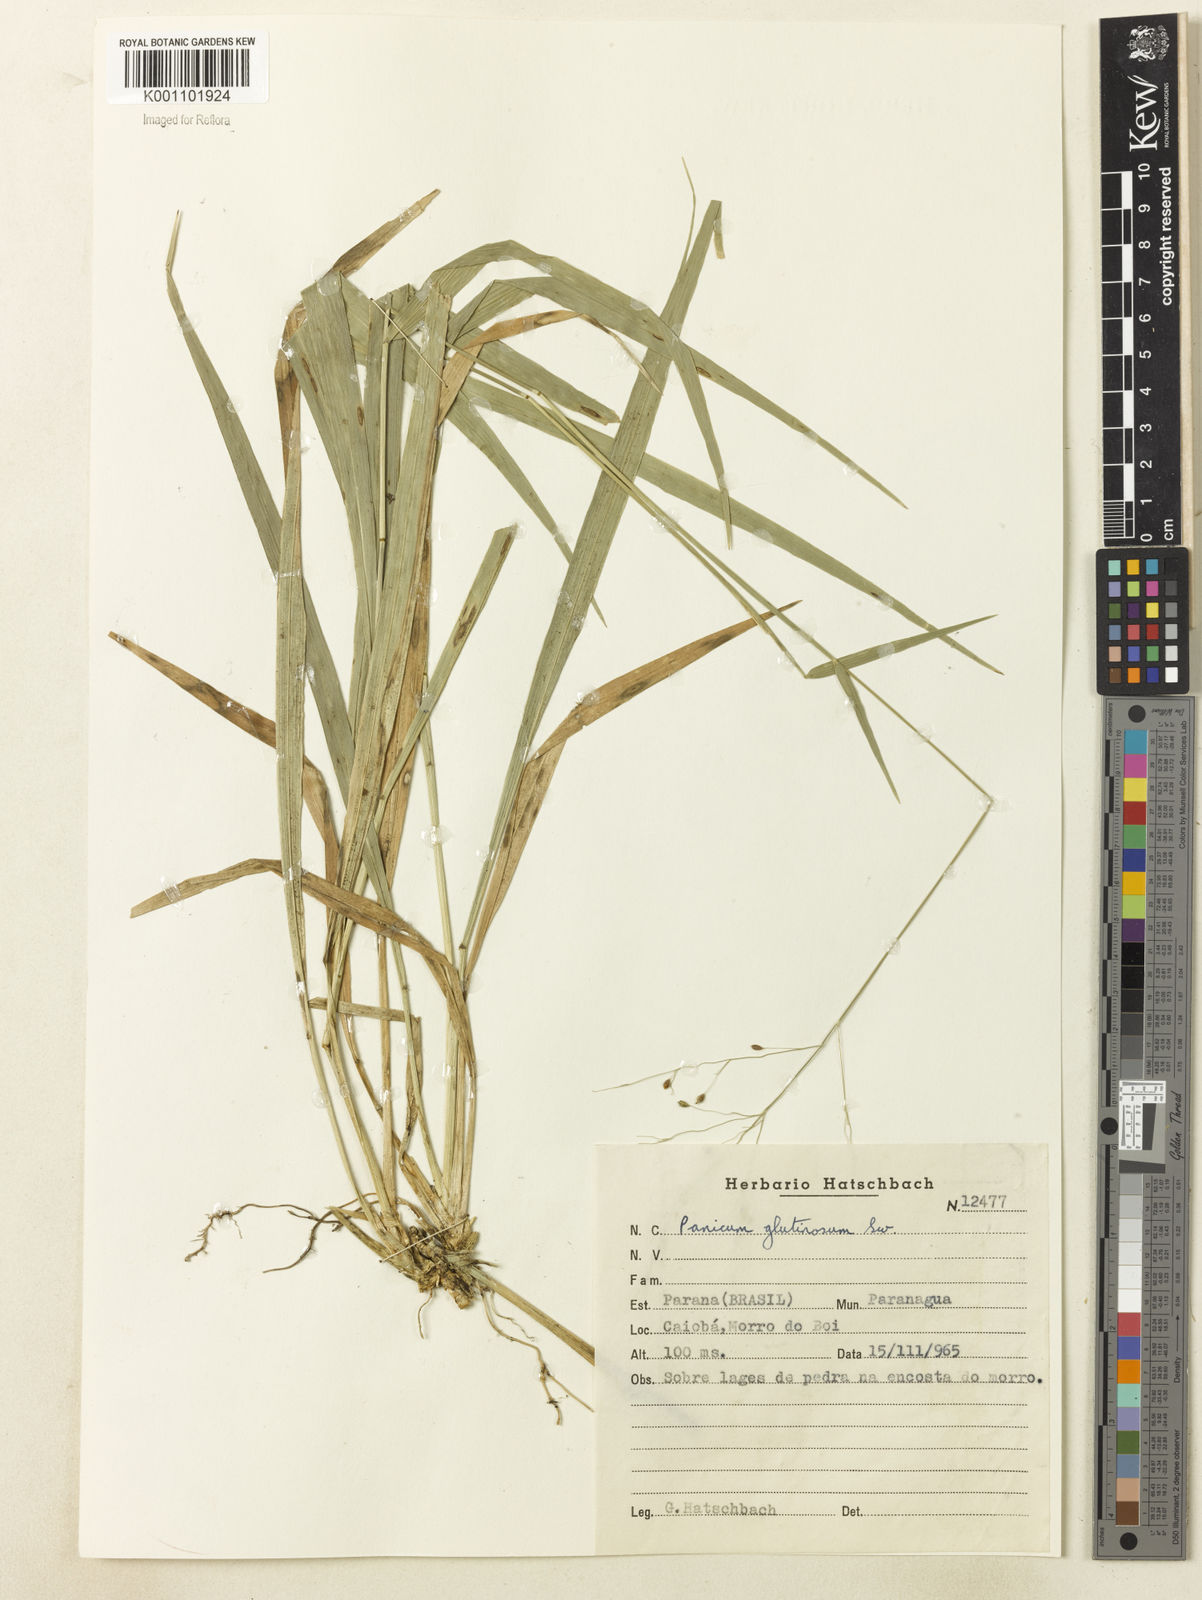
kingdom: Plantae
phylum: Tracheophyta
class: Liliopsida
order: Poales
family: Poaceae
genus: Homolepis
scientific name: Homolepis glutinosa
